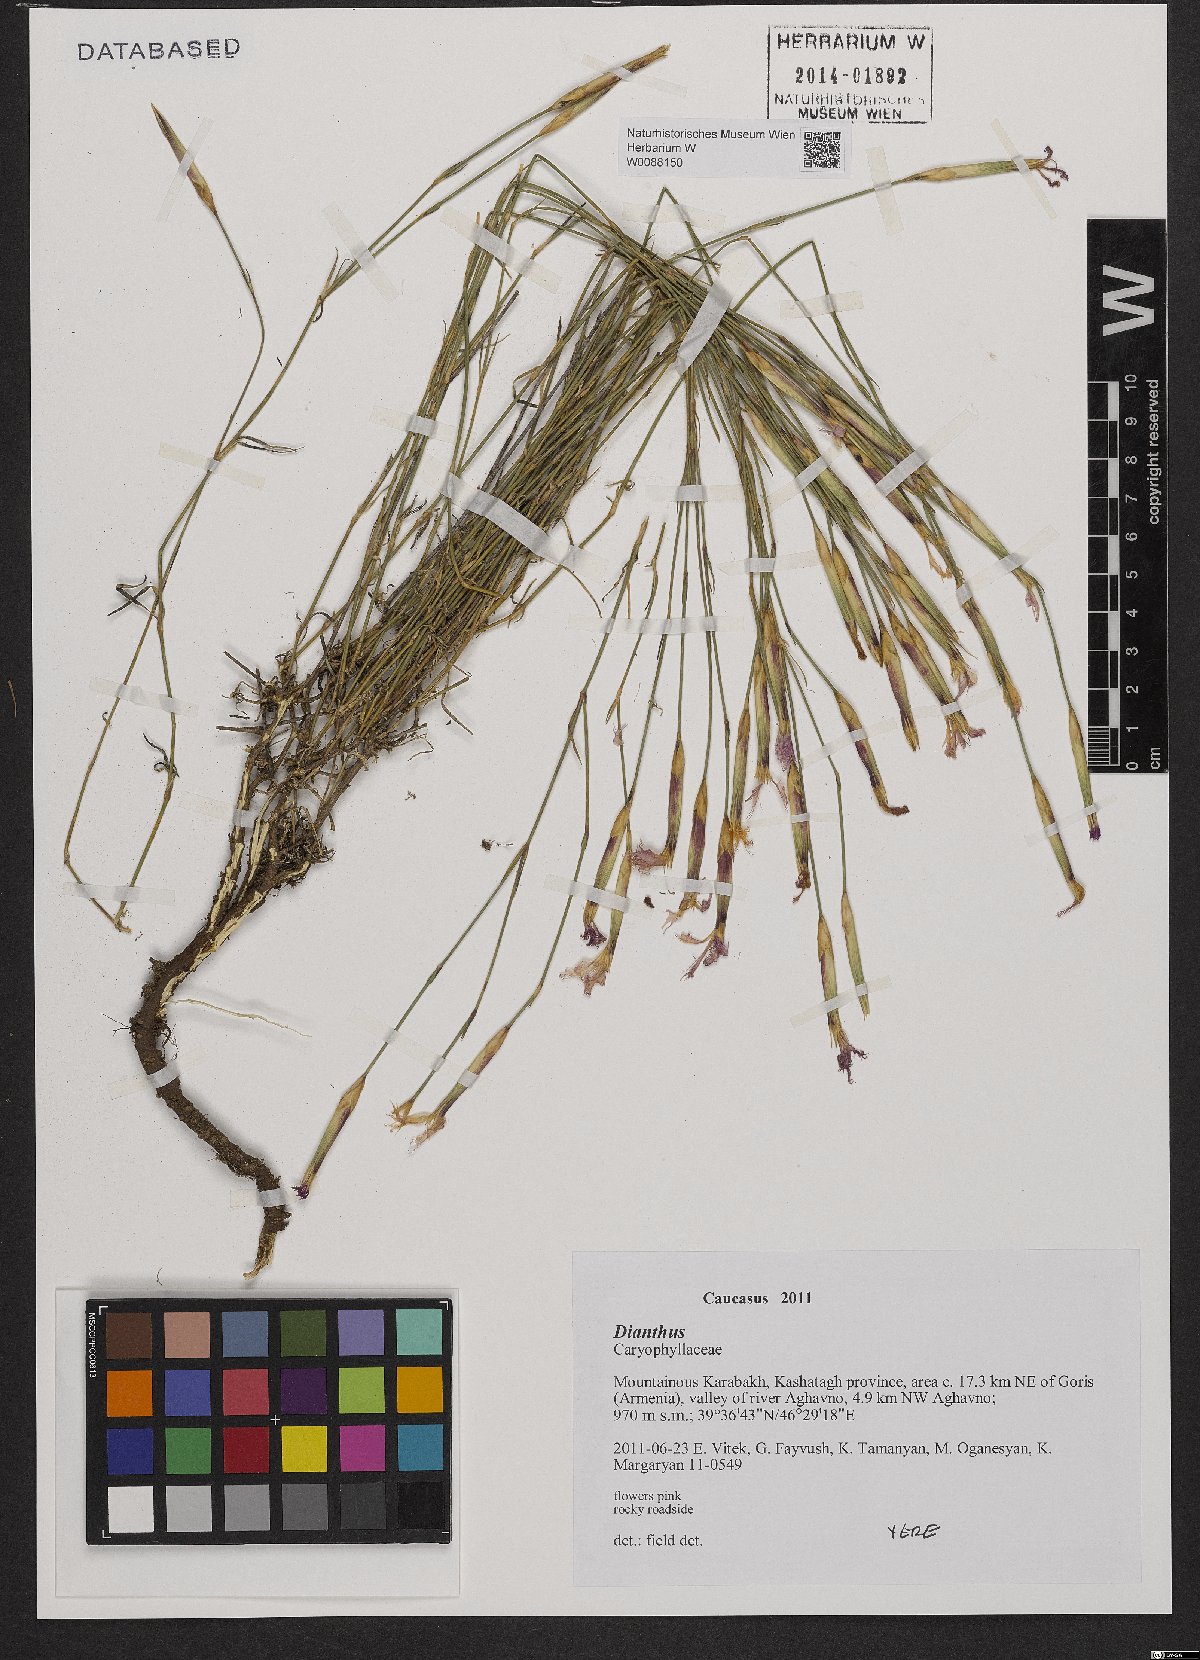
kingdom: Plantae
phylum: Tracheophyta
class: Magnoliopsida
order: Caryophyllales
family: Caryophyllaceae
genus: Dianthus
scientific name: Dianthus
